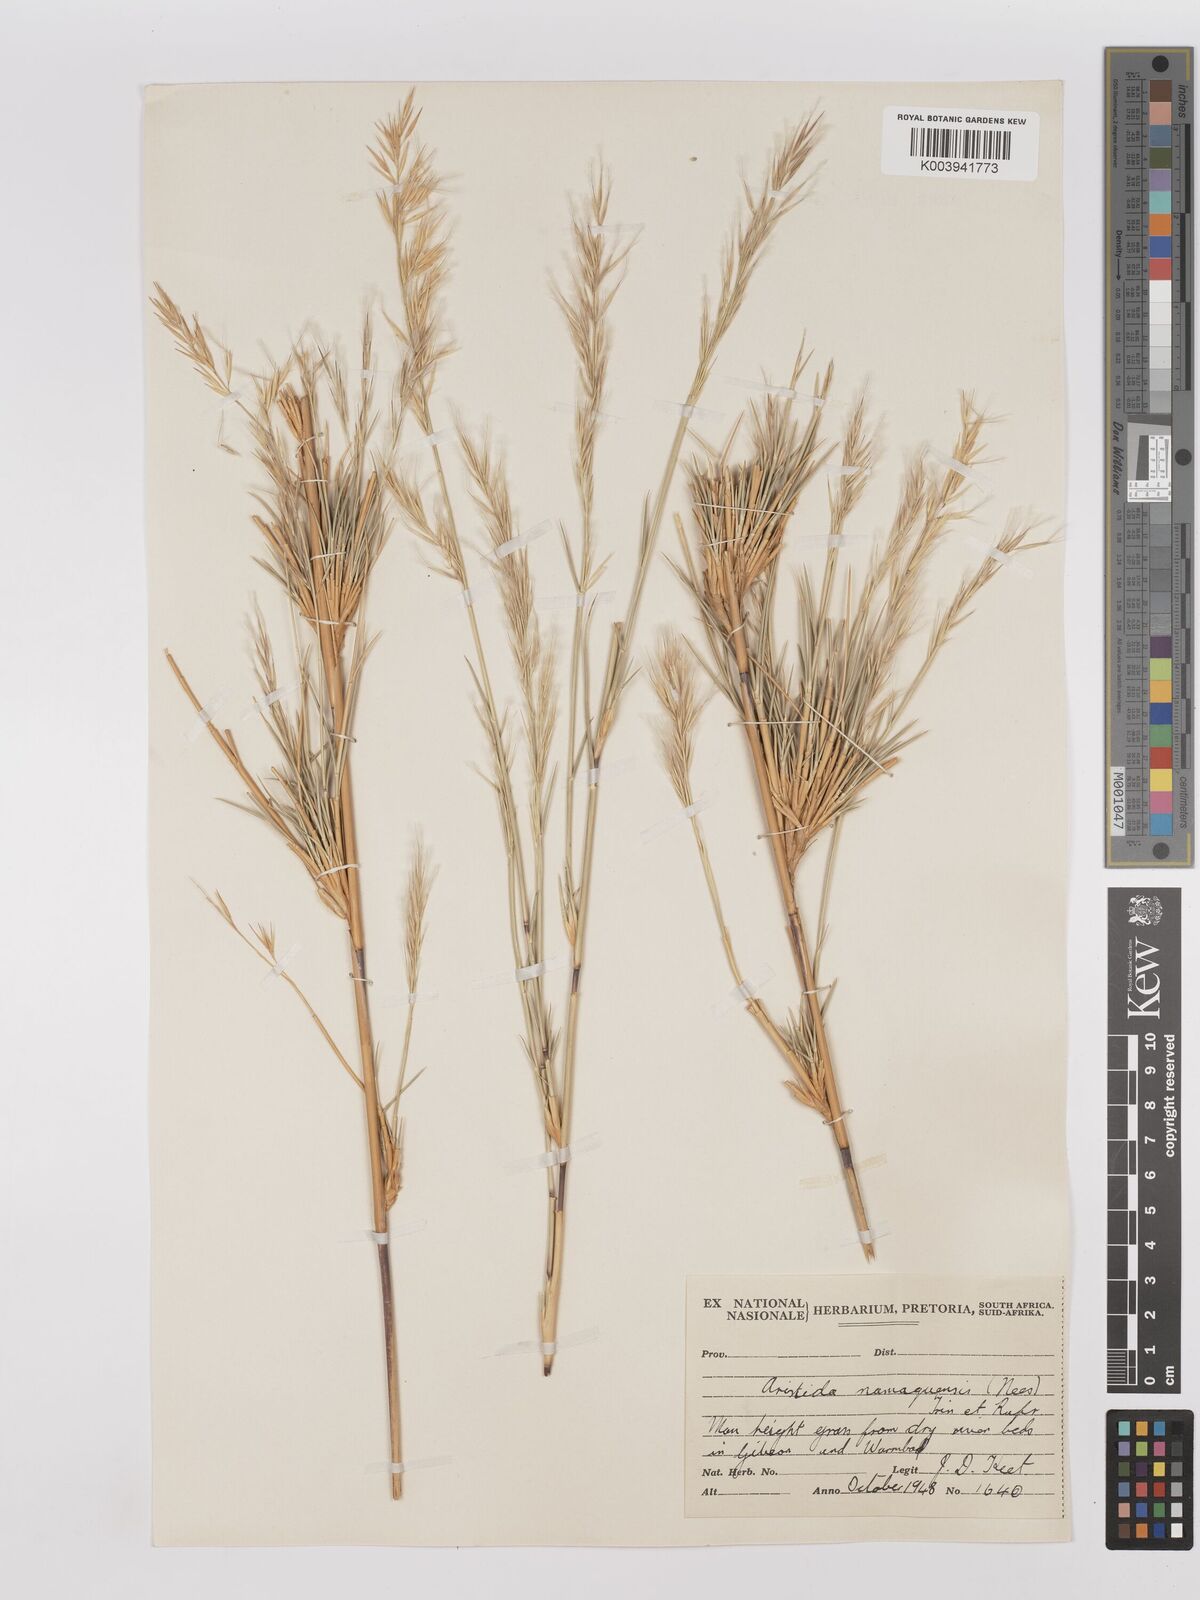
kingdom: Plantae
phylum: Tracheophyta
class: Liliopsida
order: Poales
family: Poaceae
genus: Stipagrostis
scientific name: Stipagrostis namaquensis
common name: River bushman grass
